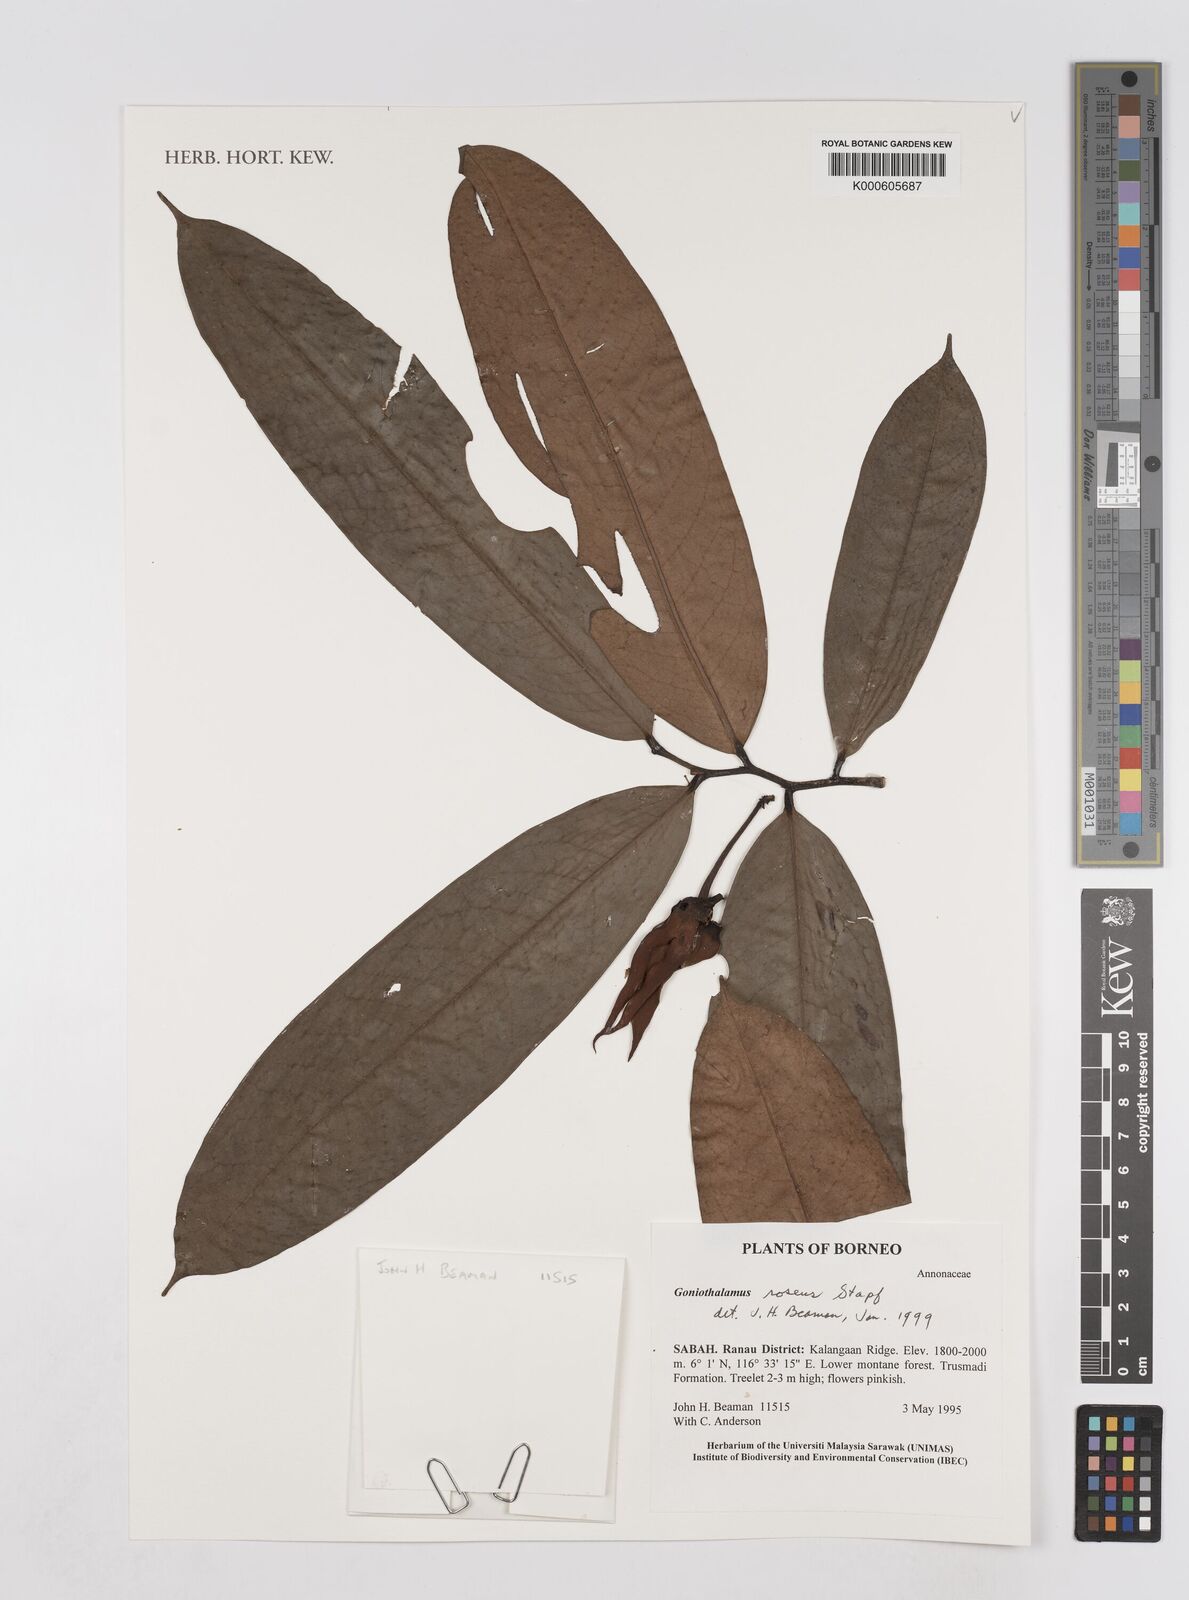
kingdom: Plantae
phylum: Tracheophyta
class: Magnoliopsida
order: Magnoliales
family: Annonaceae
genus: Goniothalamus
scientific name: Goniothalamus roseus
